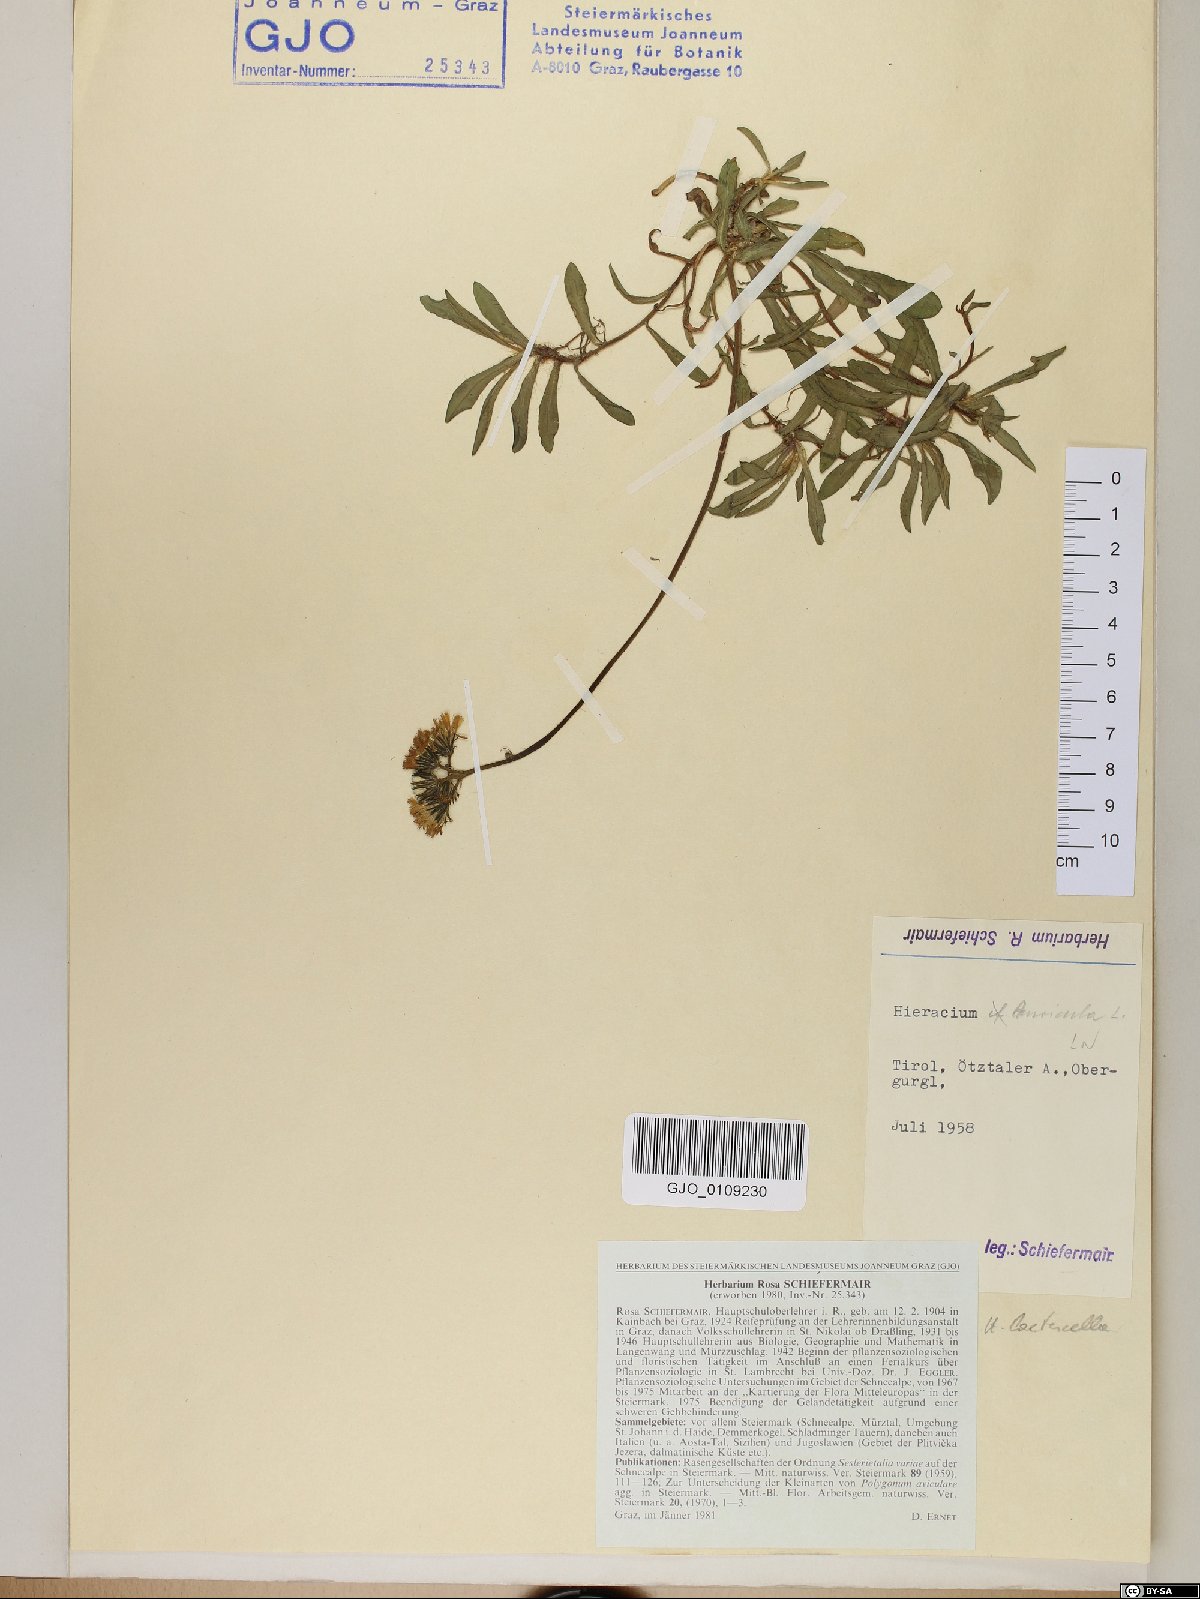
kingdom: Plantae
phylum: Tracheophyta
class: Magnoliopsida
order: Asterales
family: Asteraceae
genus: Hieracium
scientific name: Hieracium auricula
